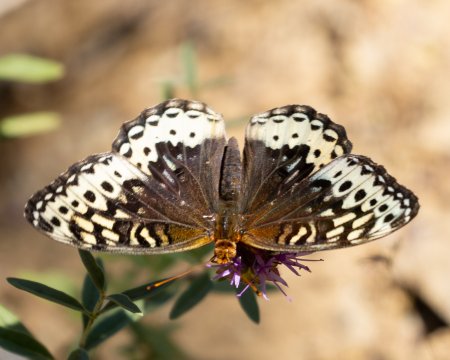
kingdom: Animalia
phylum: Arthropoda
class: Insecta
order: Lepidoptera
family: Nymphalidae
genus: Speyeria
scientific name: Speyeria cybele
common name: Great Spangled Fritillary
